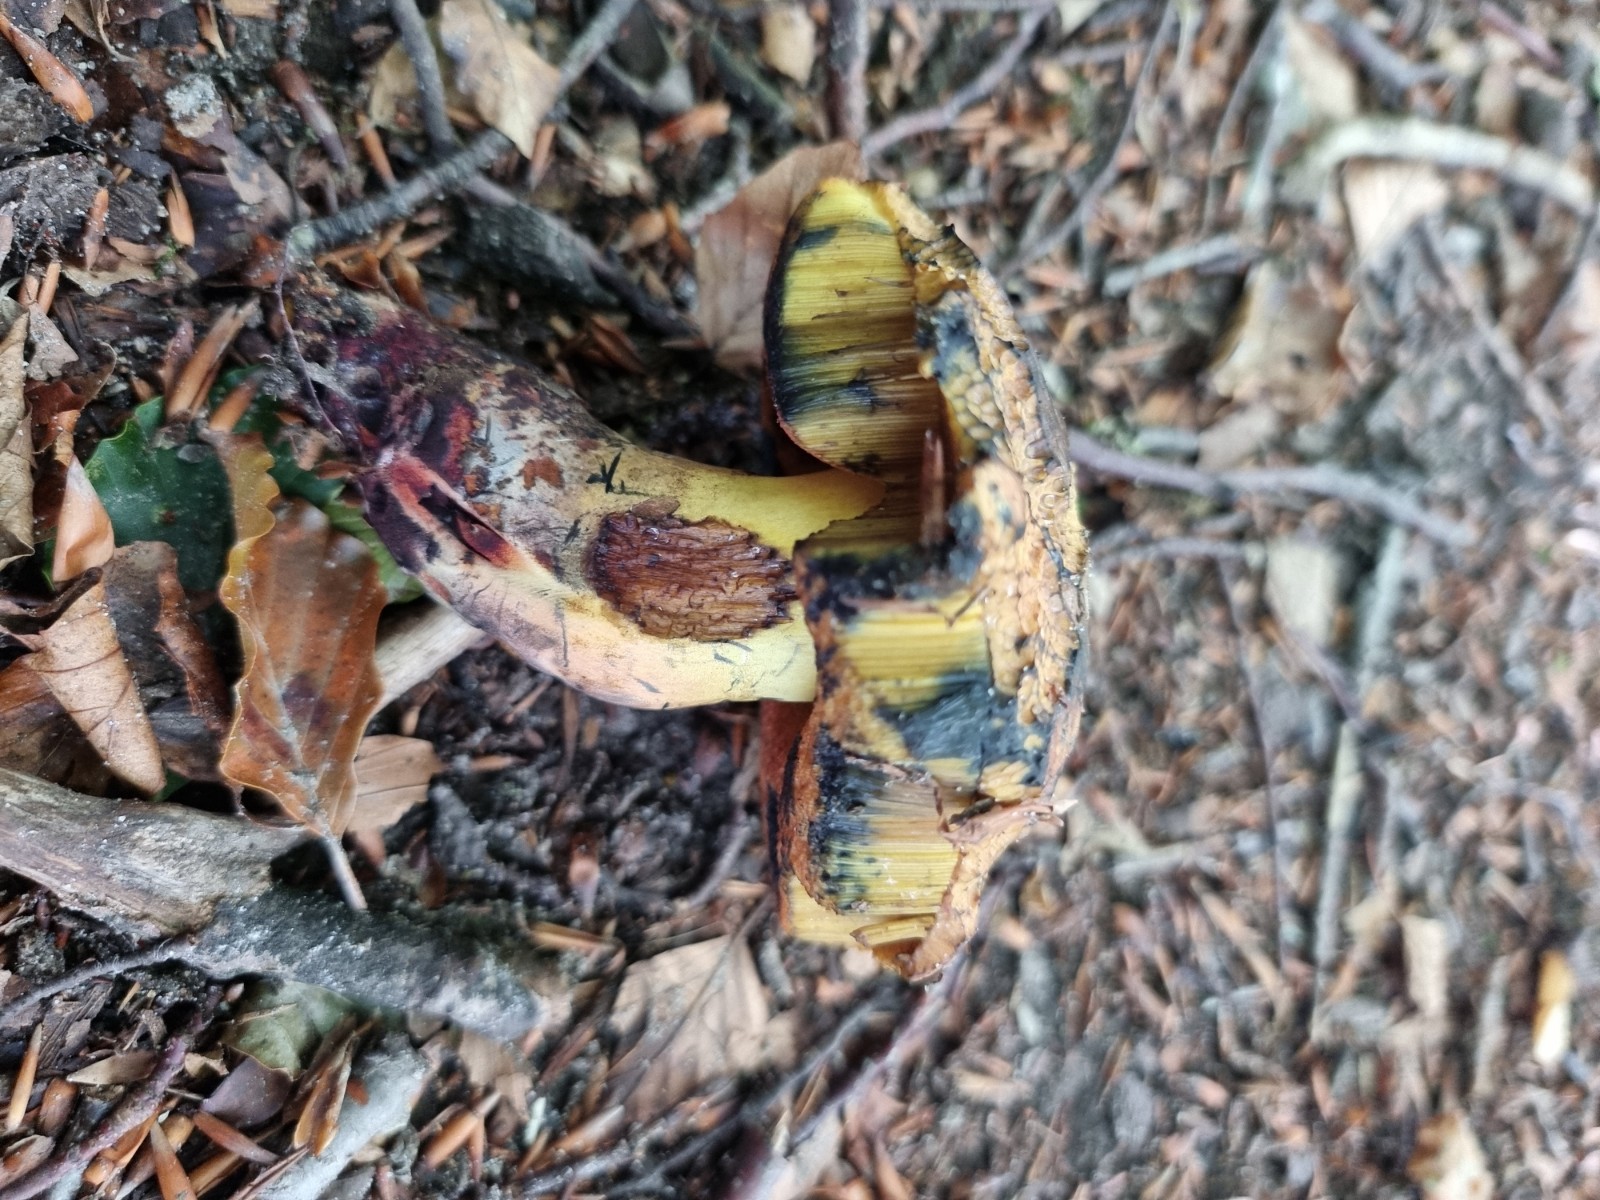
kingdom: Fungi
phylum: Basidiomycota
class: Agaricomycetes
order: Boletales
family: Boletaceae
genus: Suillellus
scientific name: Suillellus queletii
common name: glatstokket indigorørhat
